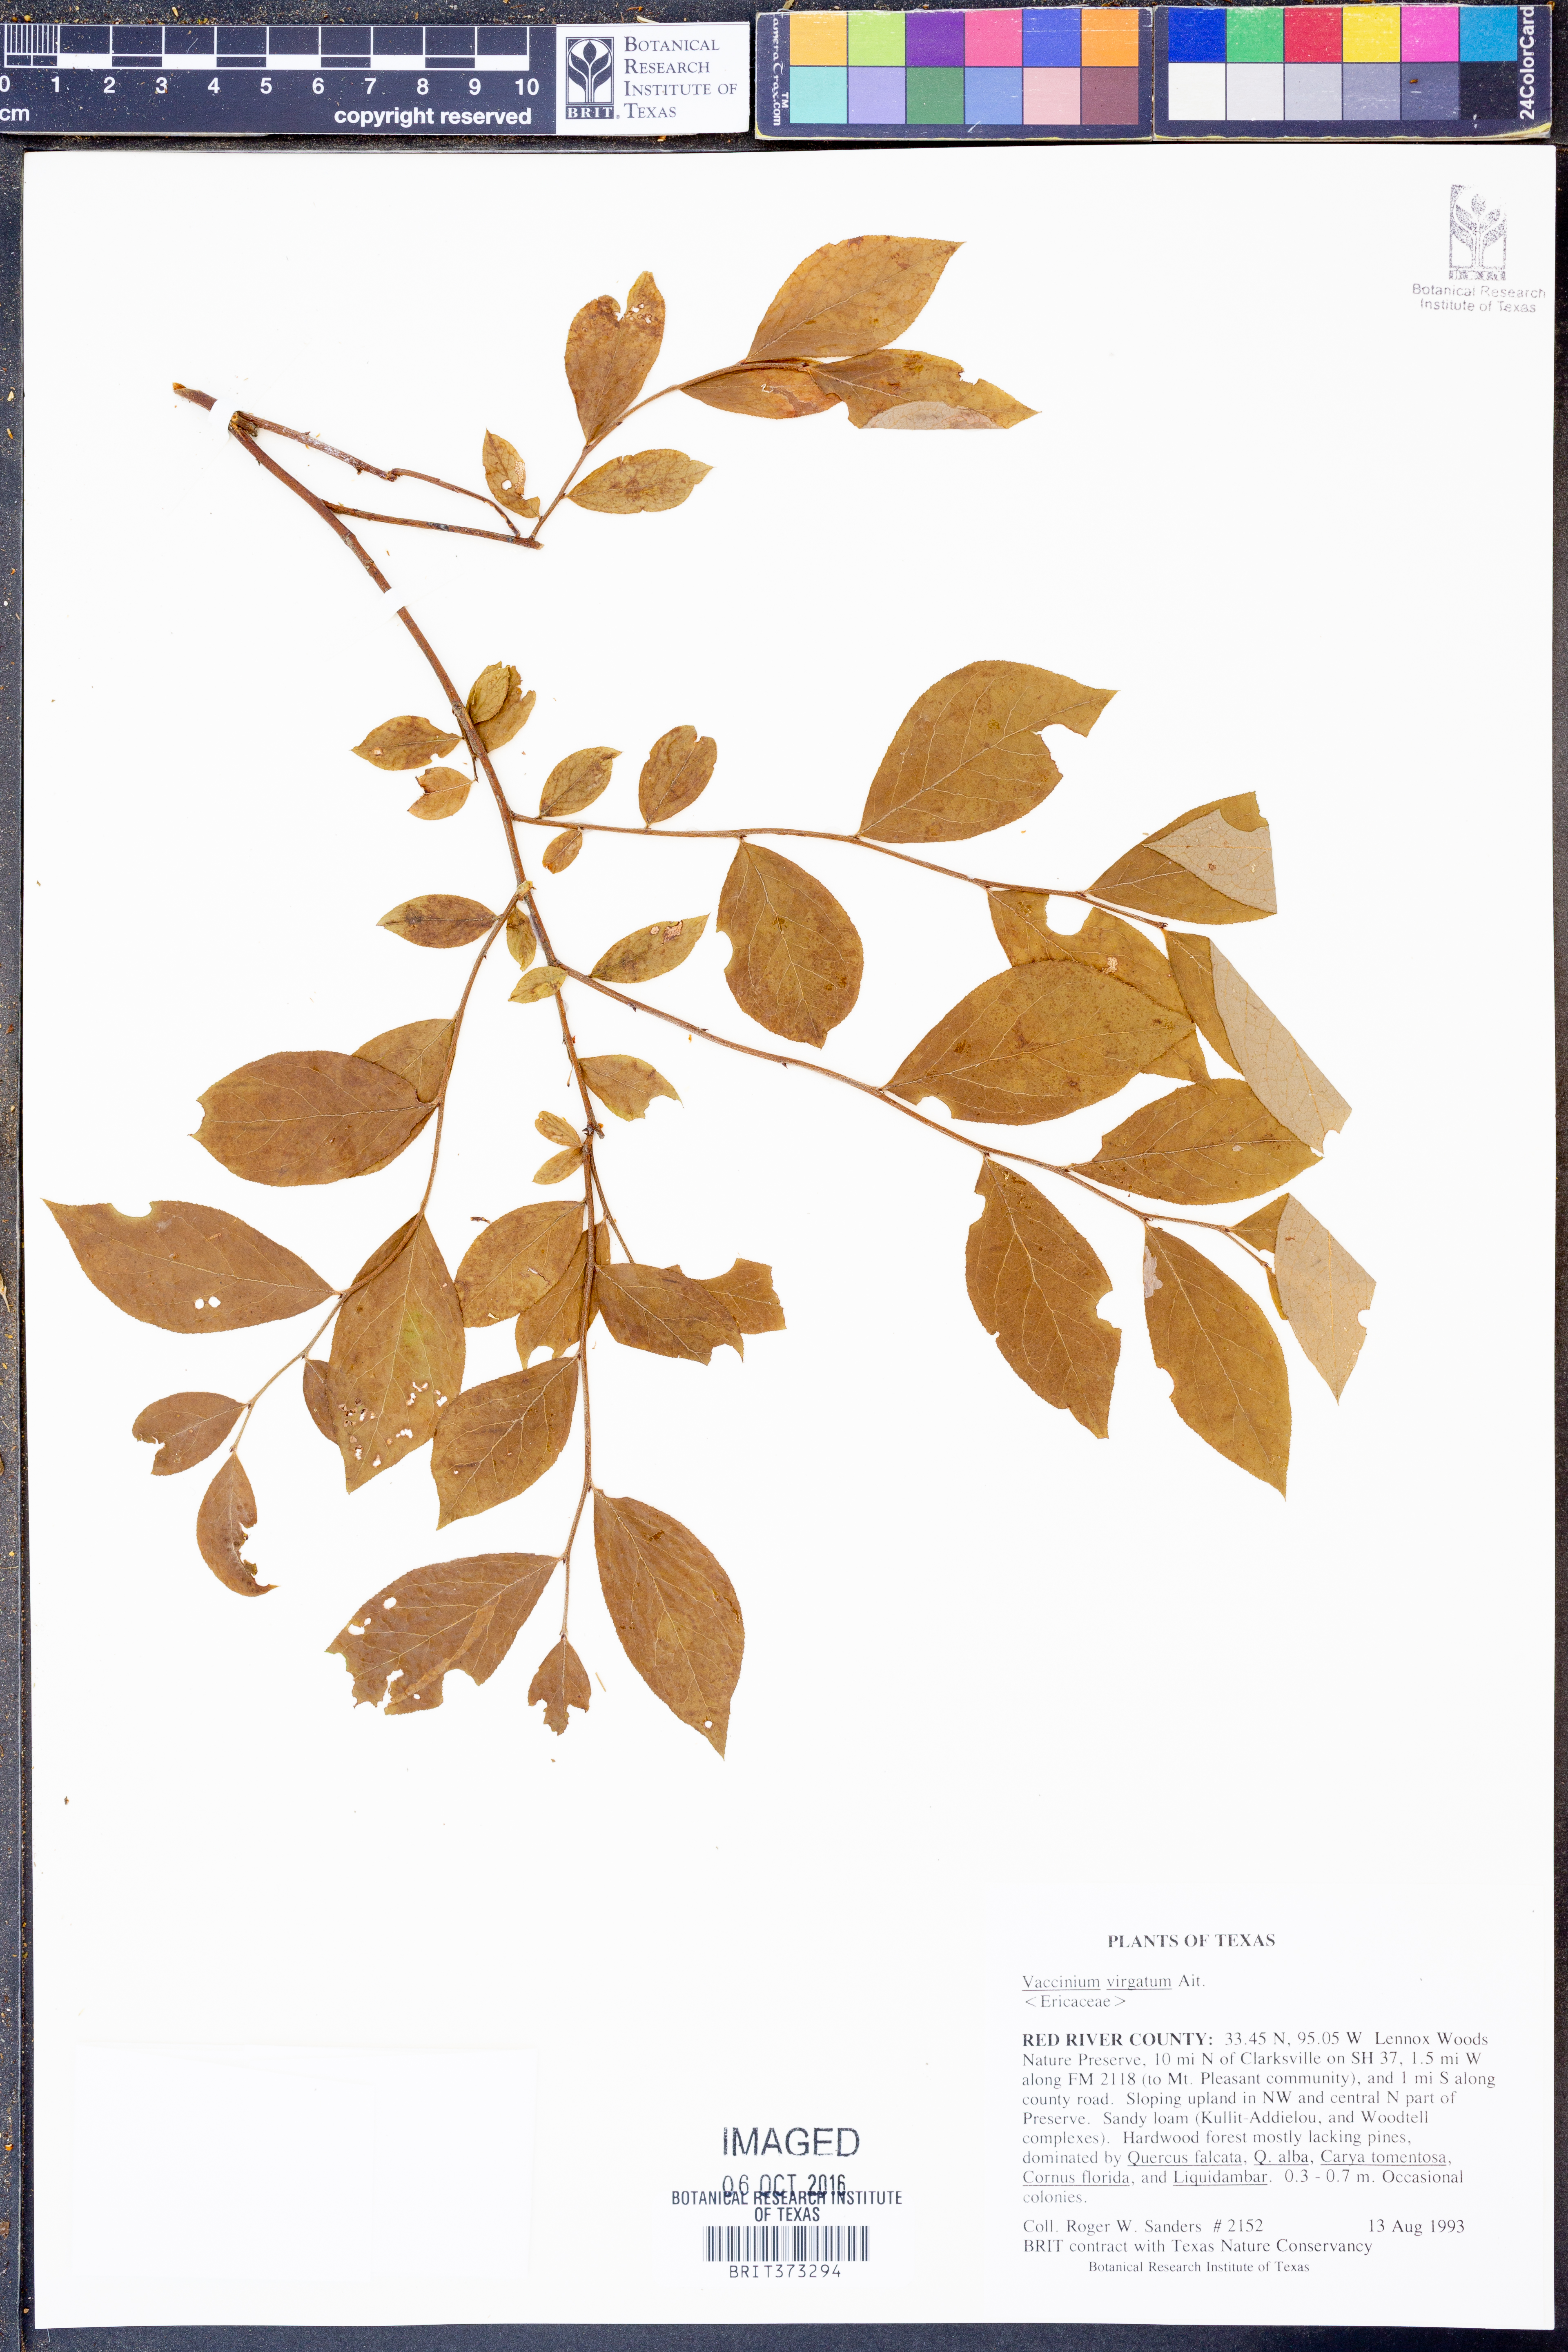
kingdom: Plantae
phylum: Tracheophyta
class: Magnoliopsida
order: Ericales
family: Ericaceae
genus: Vaccinium
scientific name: Vaccinium corymbosum
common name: Blueberry
